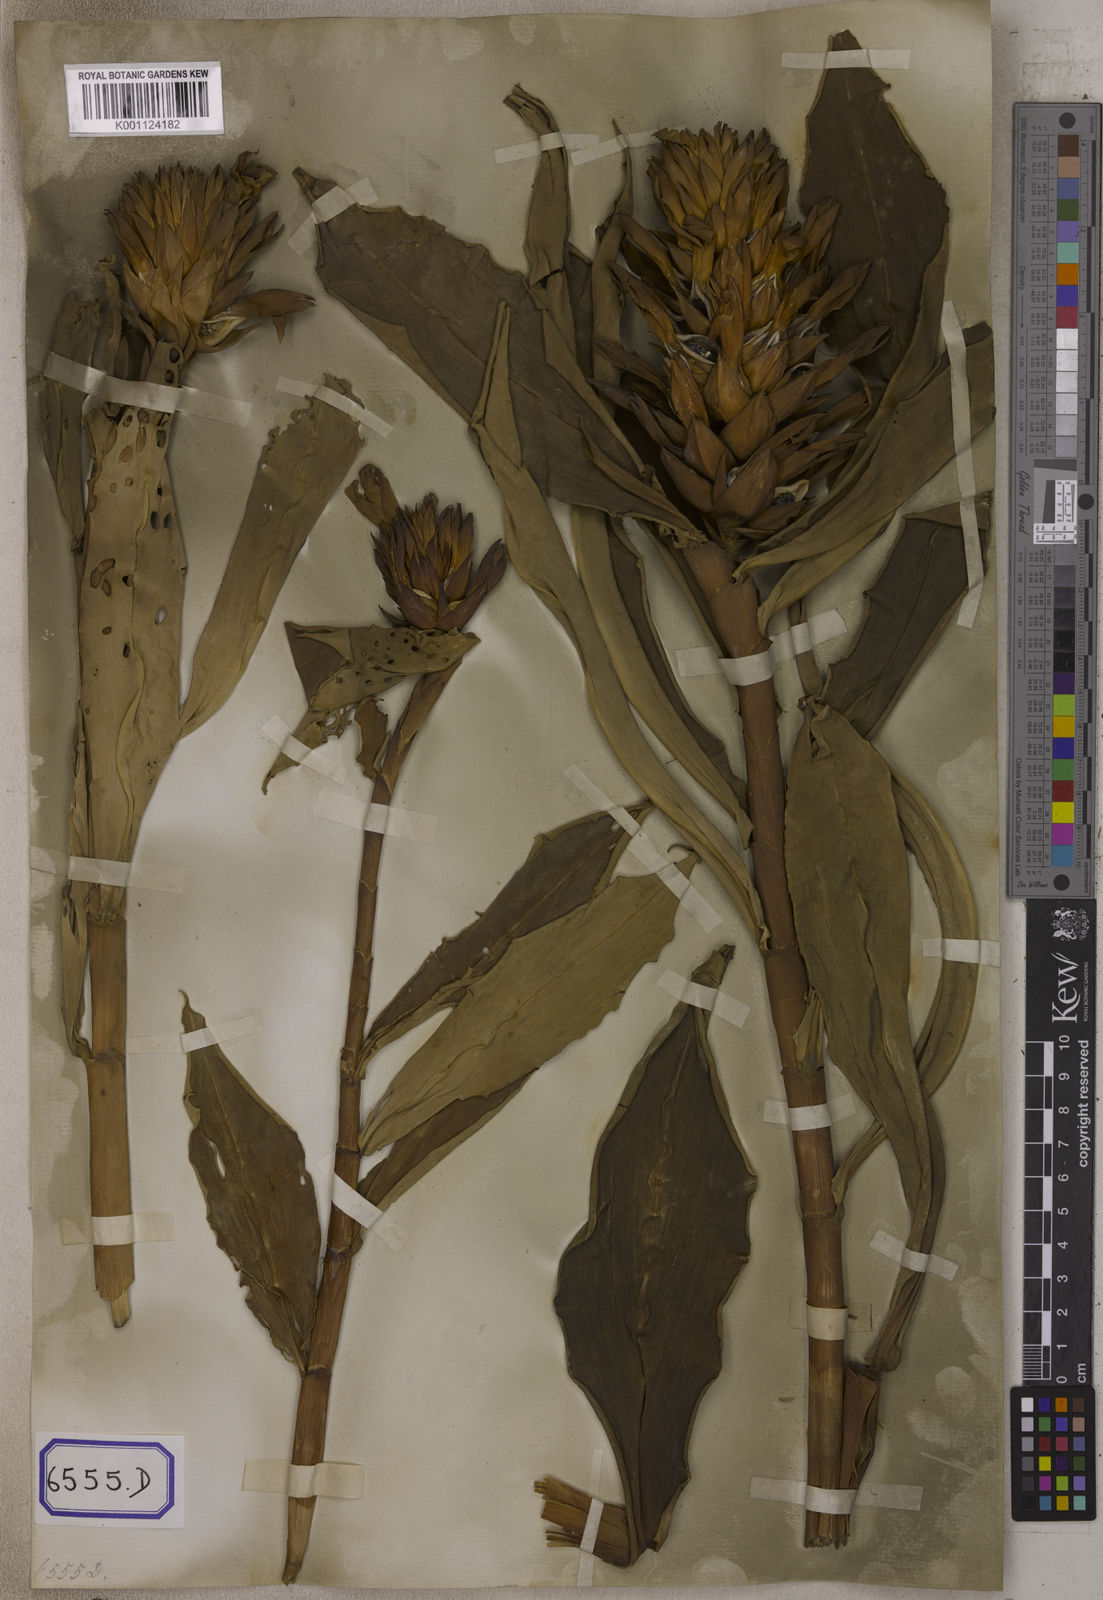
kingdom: Plantae
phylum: Tracheophyta
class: Liliopsida
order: Zingiberales
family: Costaceae
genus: Hellenia
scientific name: Hellenia speciosa
